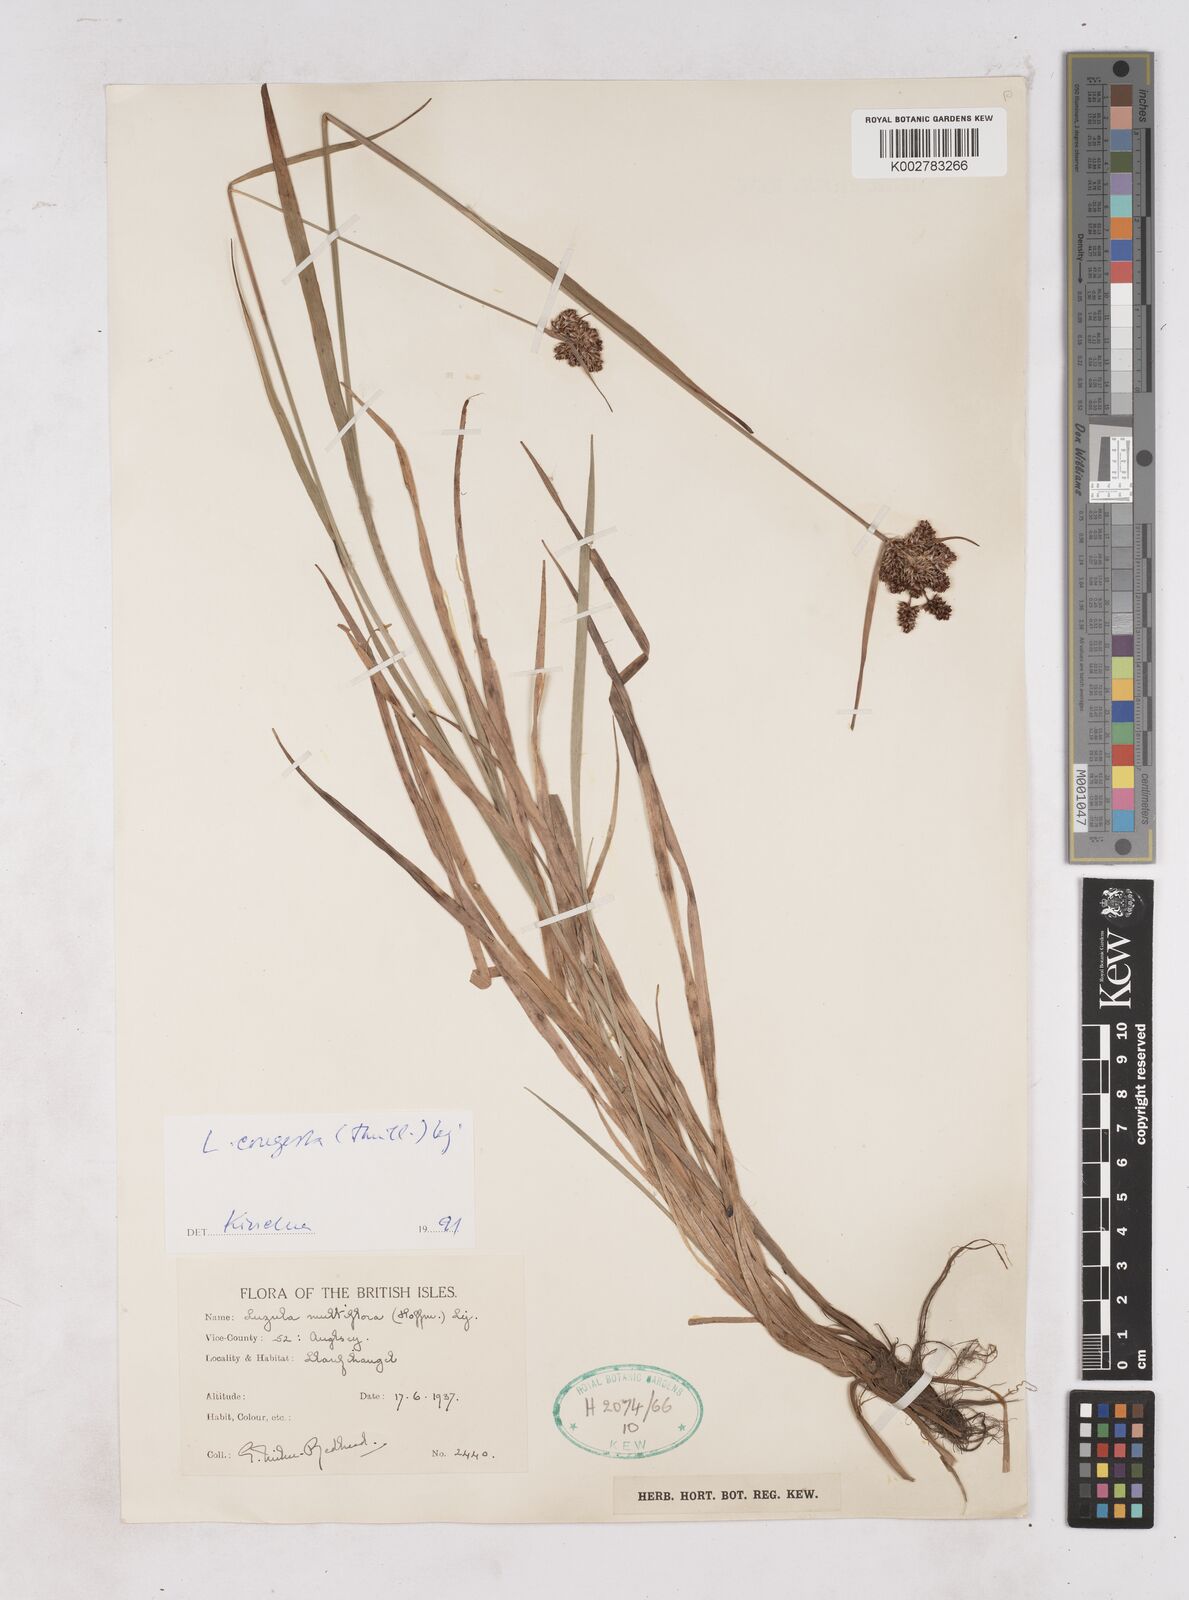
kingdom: Plantae
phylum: Tracheophyta
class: Liliopsida
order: Poales
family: Juncaceae
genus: Luzula
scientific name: Luzula multiflora
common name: Heath wood-rush
